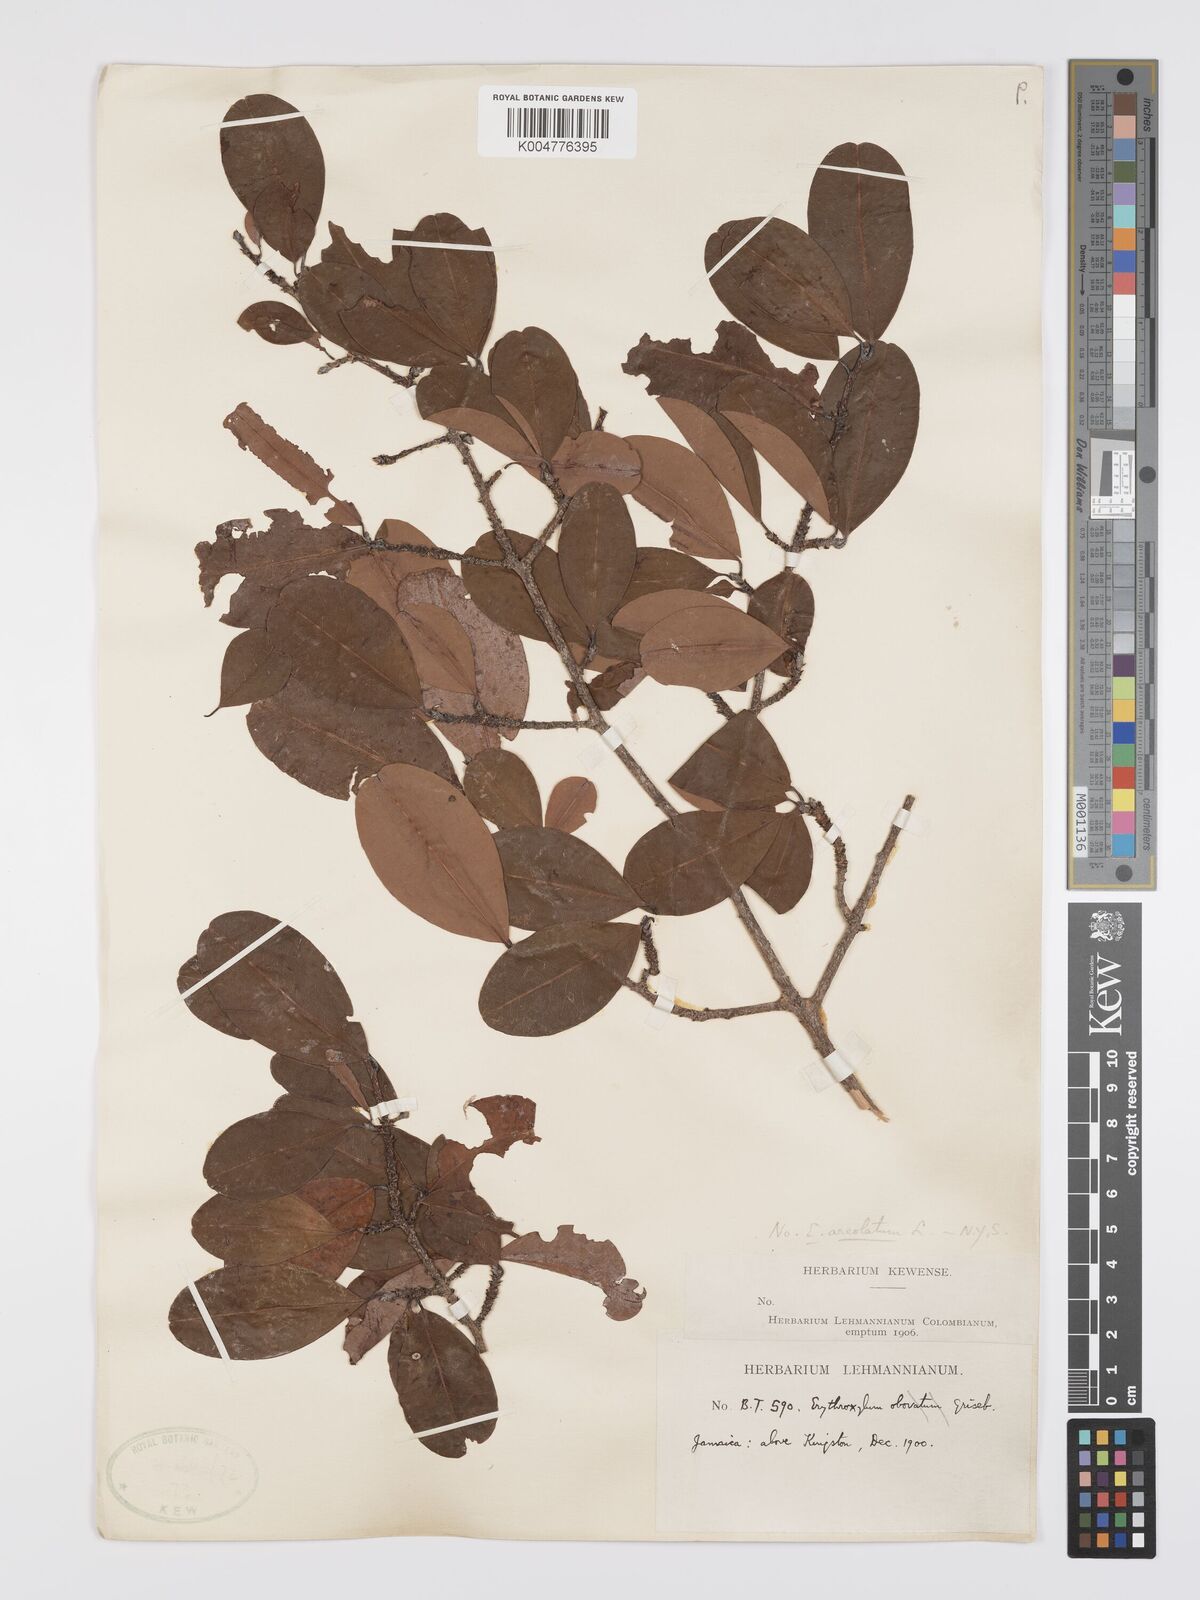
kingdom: Plantae
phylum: Tracheophyta
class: Magnoliopsida
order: Malpighiales
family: Erythroxylaceae
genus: Erythroxylum
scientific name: Erythroxylum areolatum
